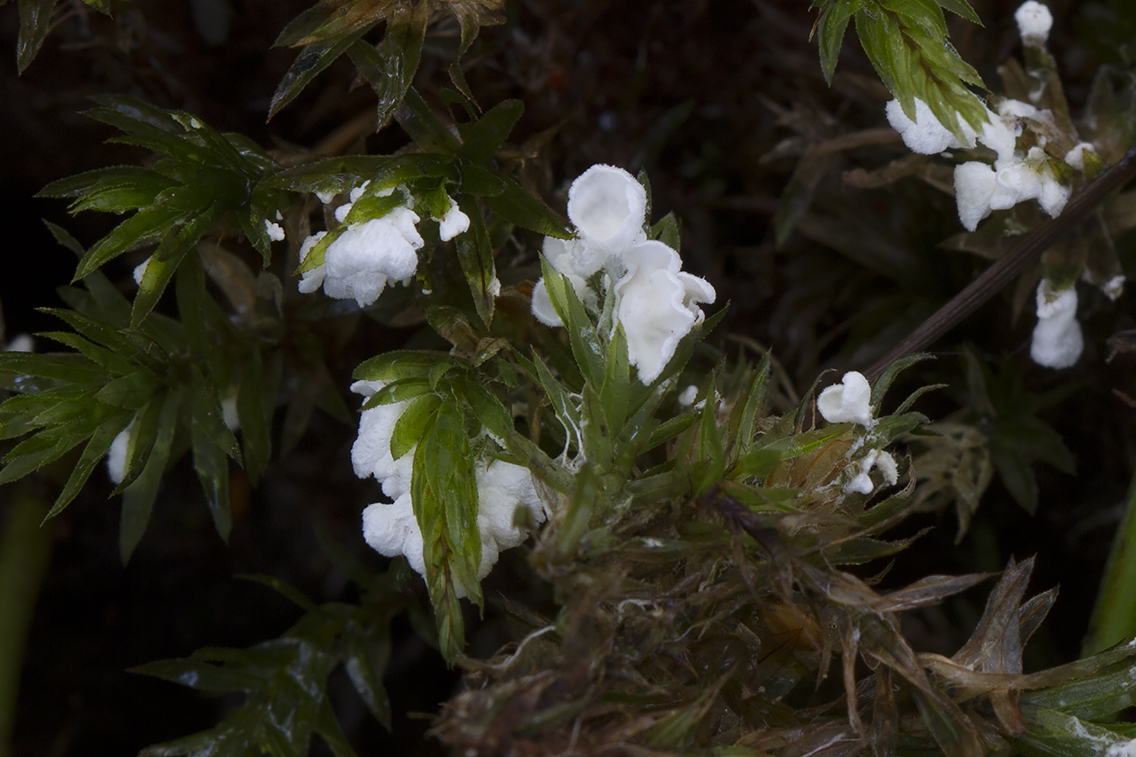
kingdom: Fungi
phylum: Basidiomycota
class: Agaricomycetes
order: Agaricales
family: Tricholomataceae
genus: Rimbachia
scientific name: Rimbachia arachnoidea
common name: Almindelig mosskål
